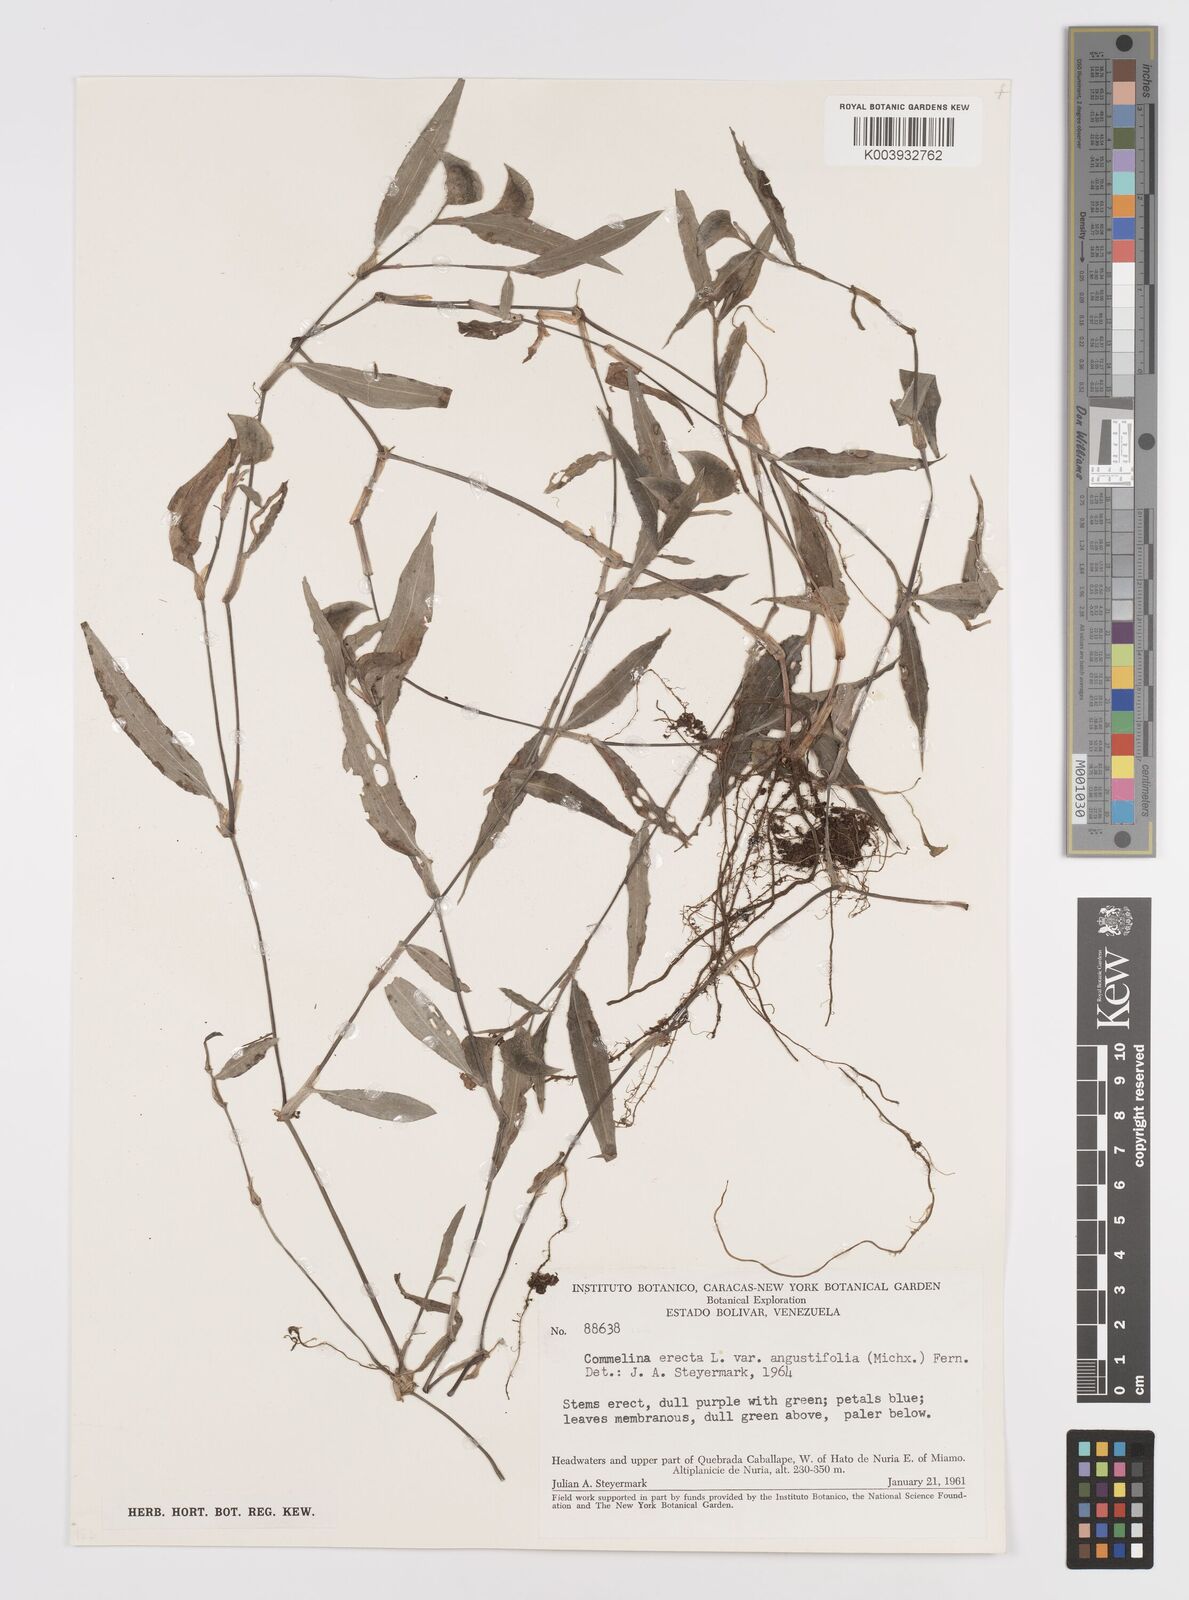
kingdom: Plantae
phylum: Tracheophyta
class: Liliopsida
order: Commelinales
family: Commelinaceae
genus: Commelina
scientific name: Commelina erecta
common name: Blousel blommetjie
